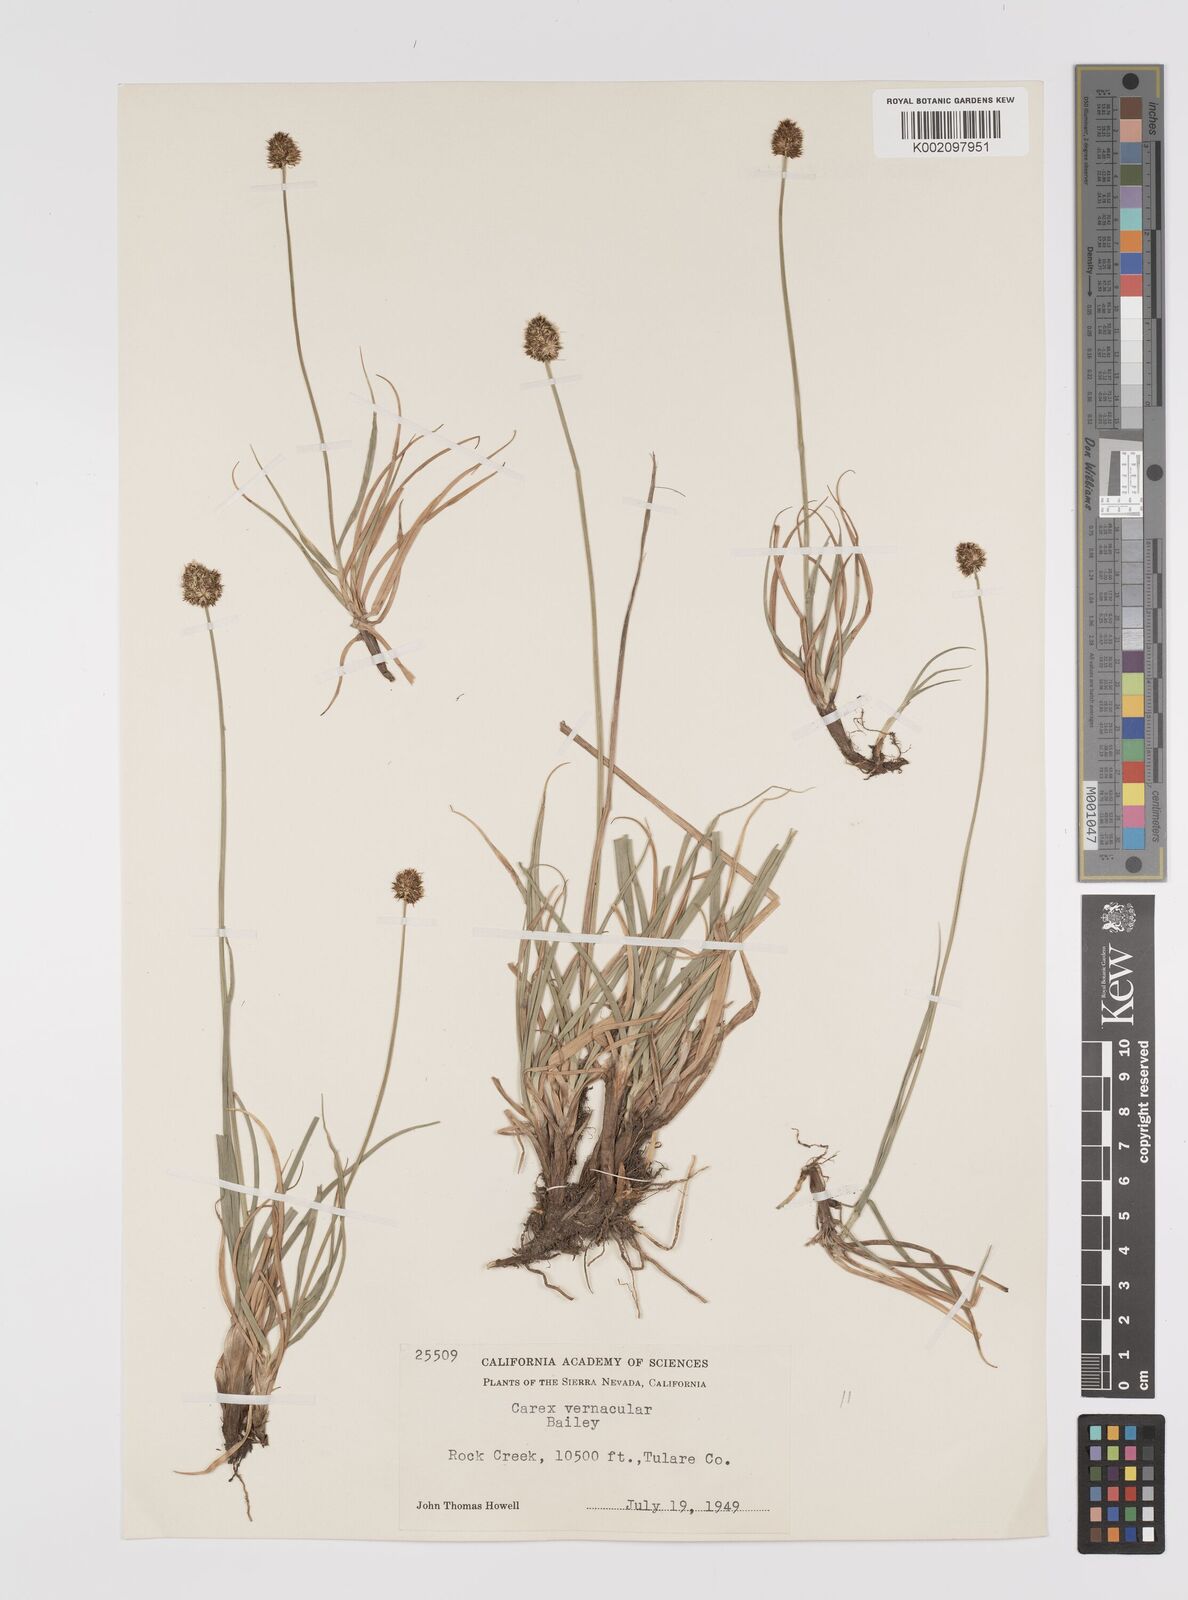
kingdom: Plantae
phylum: Tracheophyta
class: Liliopsida
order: Poales
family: Cyperaceae
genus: Carex
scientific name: Carex vernacula
